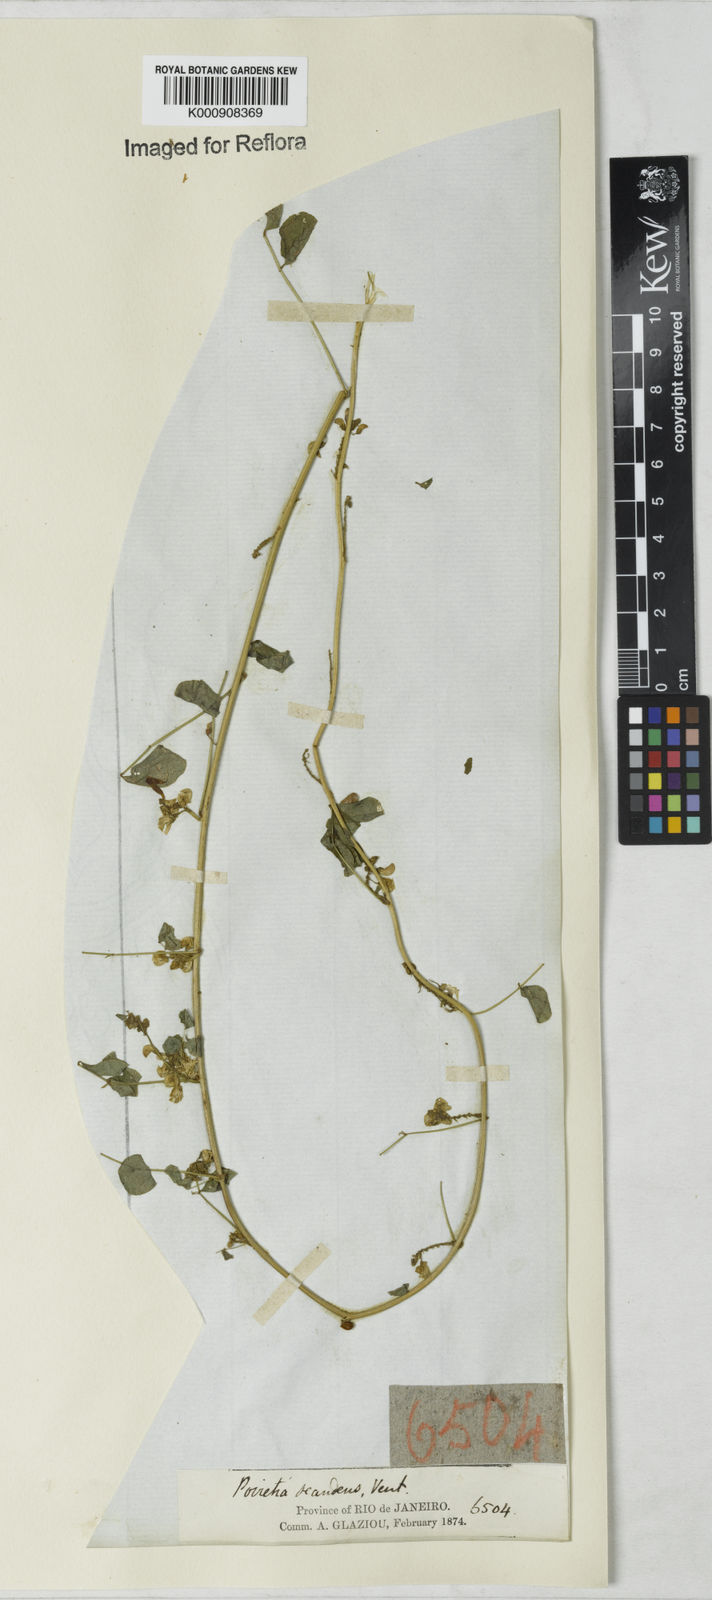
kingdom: Plantae
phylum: Tracheophyta
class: Magnoliopsida
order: Fabales
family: Fabaceae
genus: Poiretia
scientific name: Poiretia punctata
